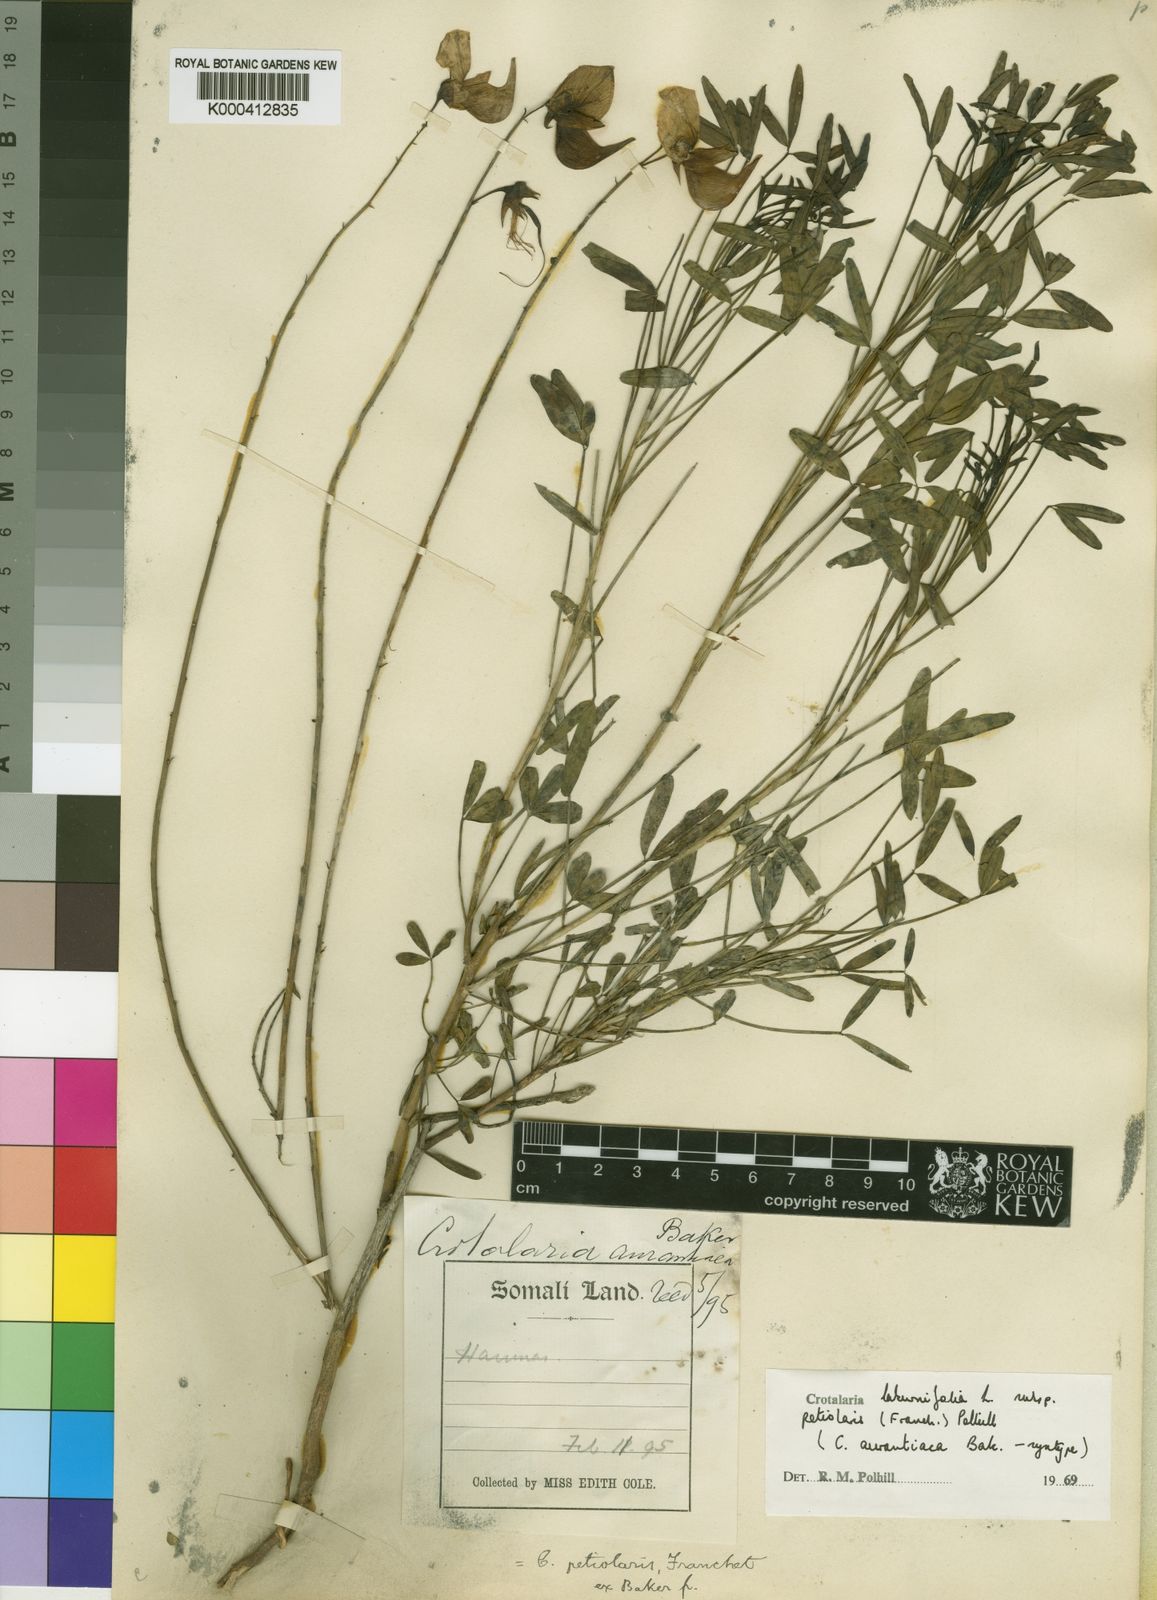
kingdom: Plantae
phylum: Tracheophyta
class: Magnoliopsida
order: Fabales
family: Fabaceae
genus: Crotalaria
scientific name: Crotalaria laburnifolia
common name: Birdflower
